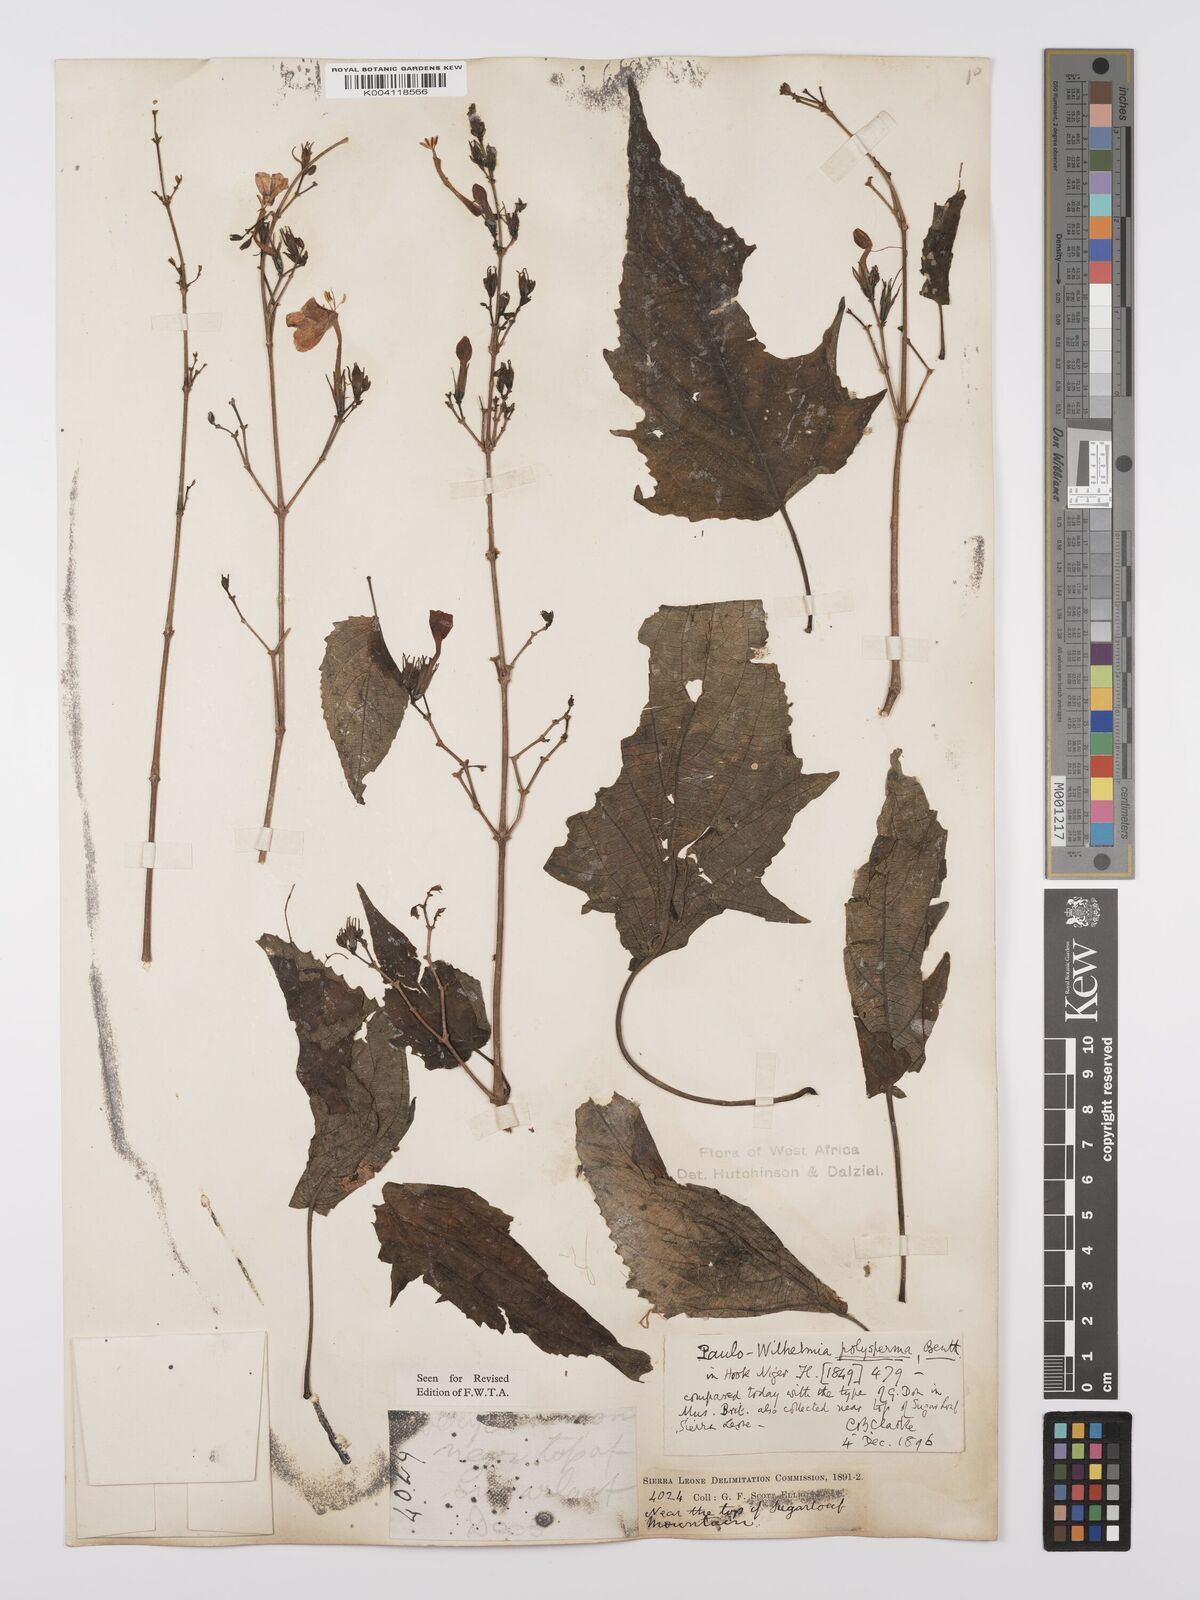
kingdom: Plantae
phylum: Tracheophyta
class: Magnoliopsida
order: Lamiales
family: Acanthaceae
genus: Eremomastax
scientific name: Eremomastax speciosa
